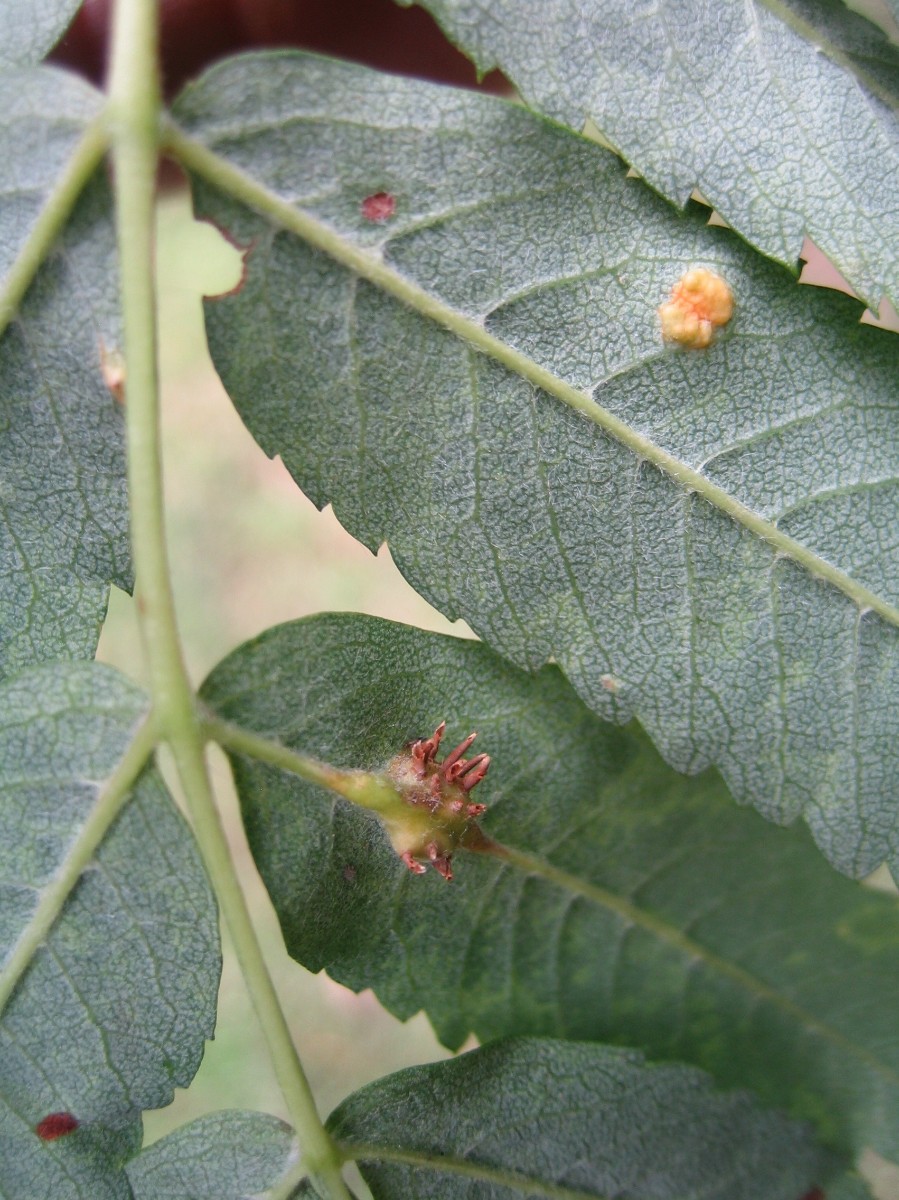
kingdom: Fungi
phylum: Basidiomycota
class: Pucciniomycetes
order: Pucciniales
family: Gymnosporangiaceae
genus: Gymnosporangium
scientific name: Gymnosporangium cornutum
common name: rønnehorn-bævrerust
